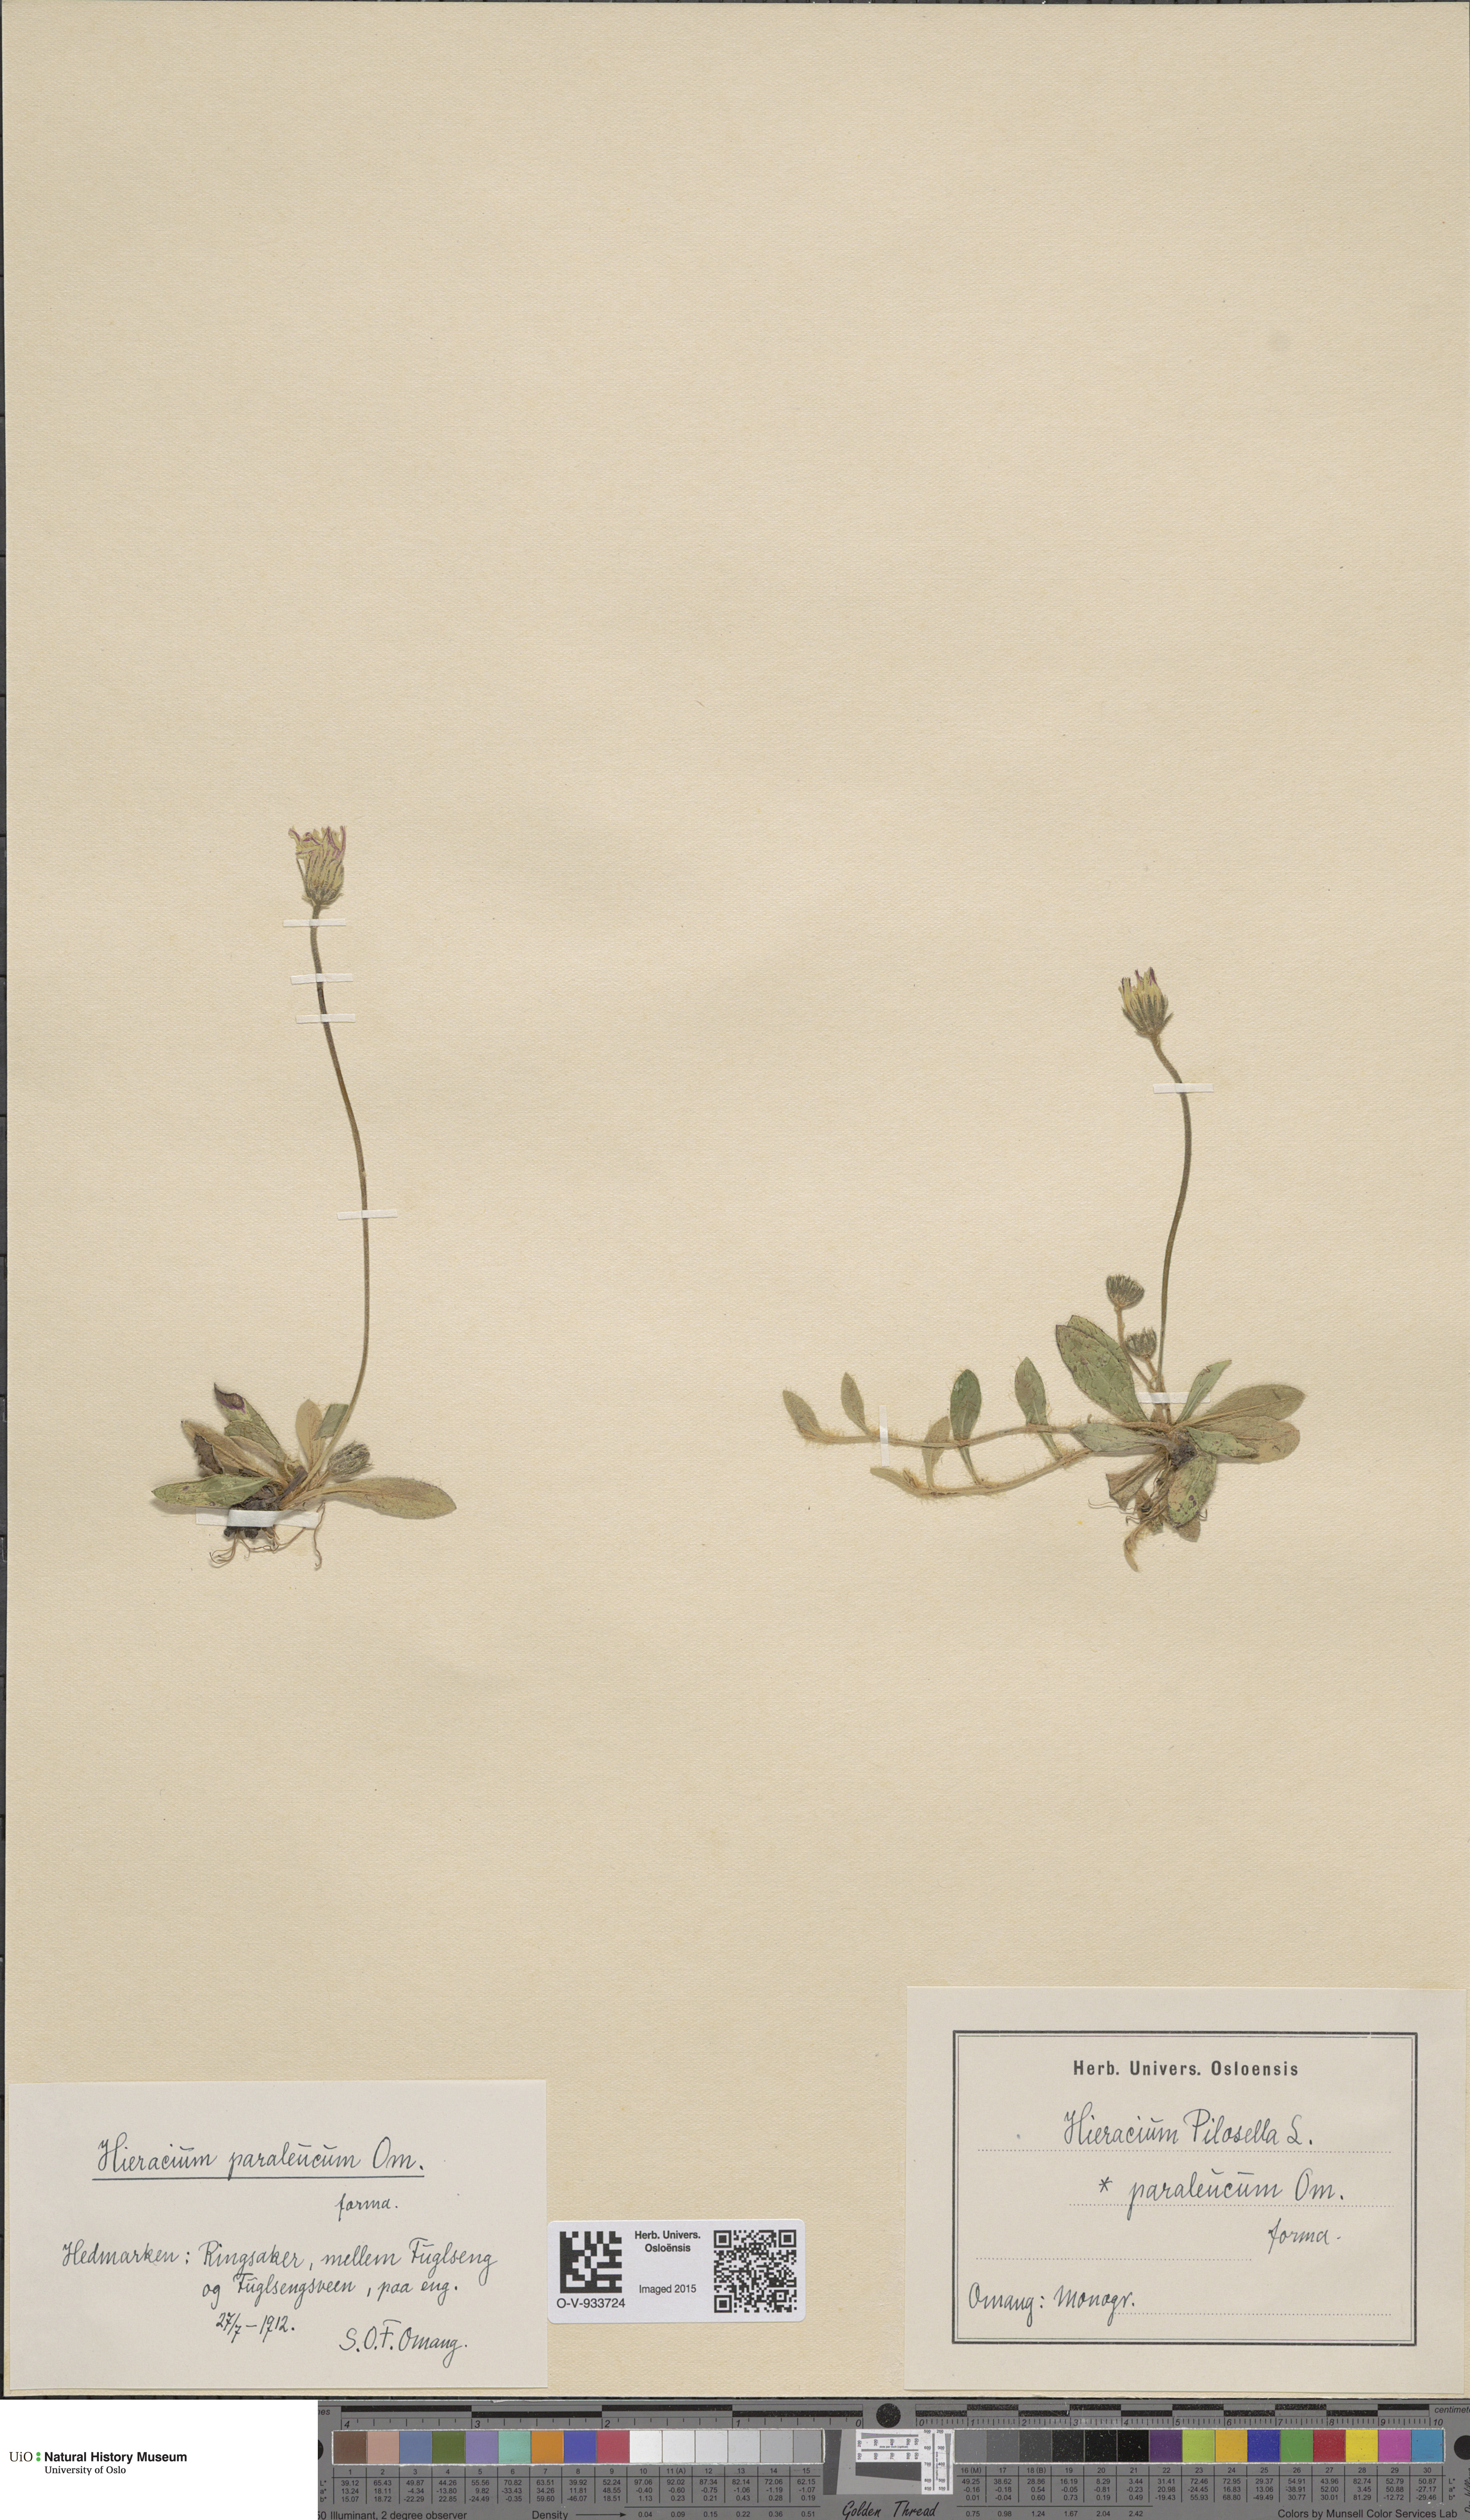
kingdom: Plantae
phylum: Tracheophyta
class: Magnoliopsida
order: Asterales
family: Asteraceae
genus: Pilosella
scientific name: Pilosella officinarum
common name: Mouse-ear hawkweed
